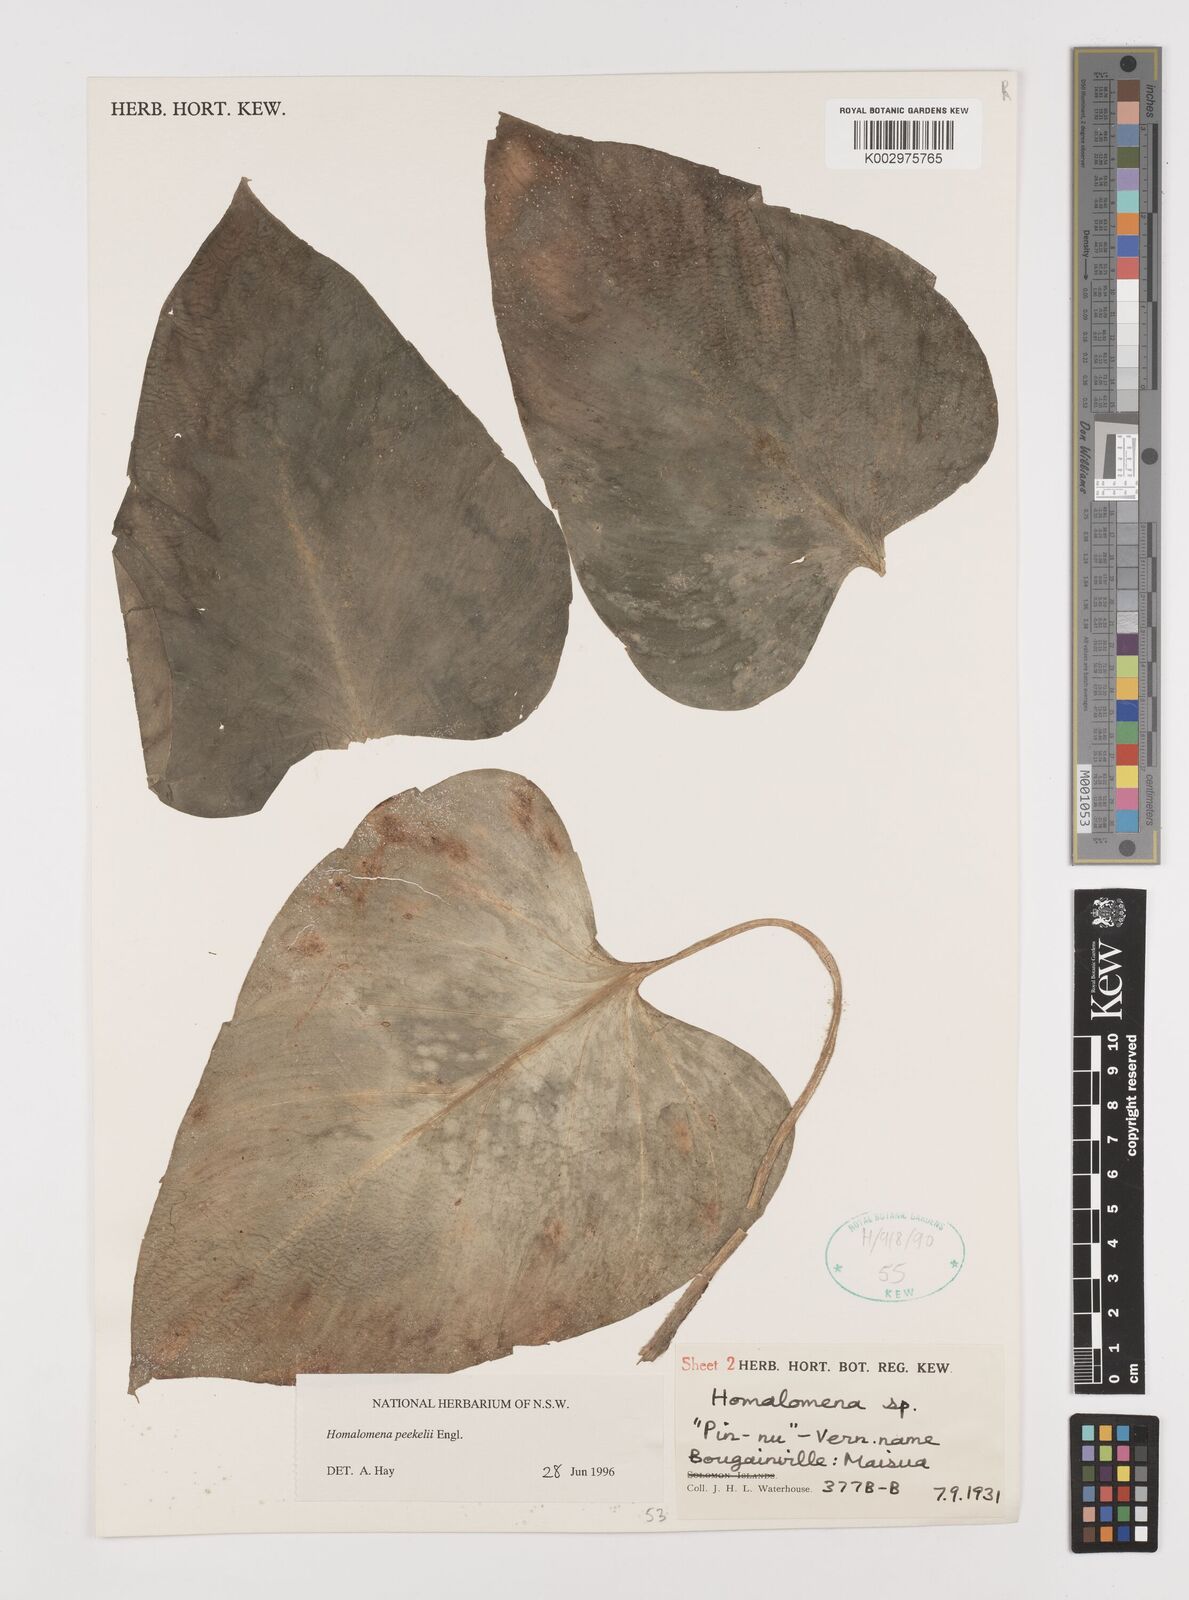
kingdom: Plantae
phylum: Tracheophyta
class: Liliopsida
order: Alismatales
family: Araceae
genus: Homalomena
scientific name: Homalomena melanesica
